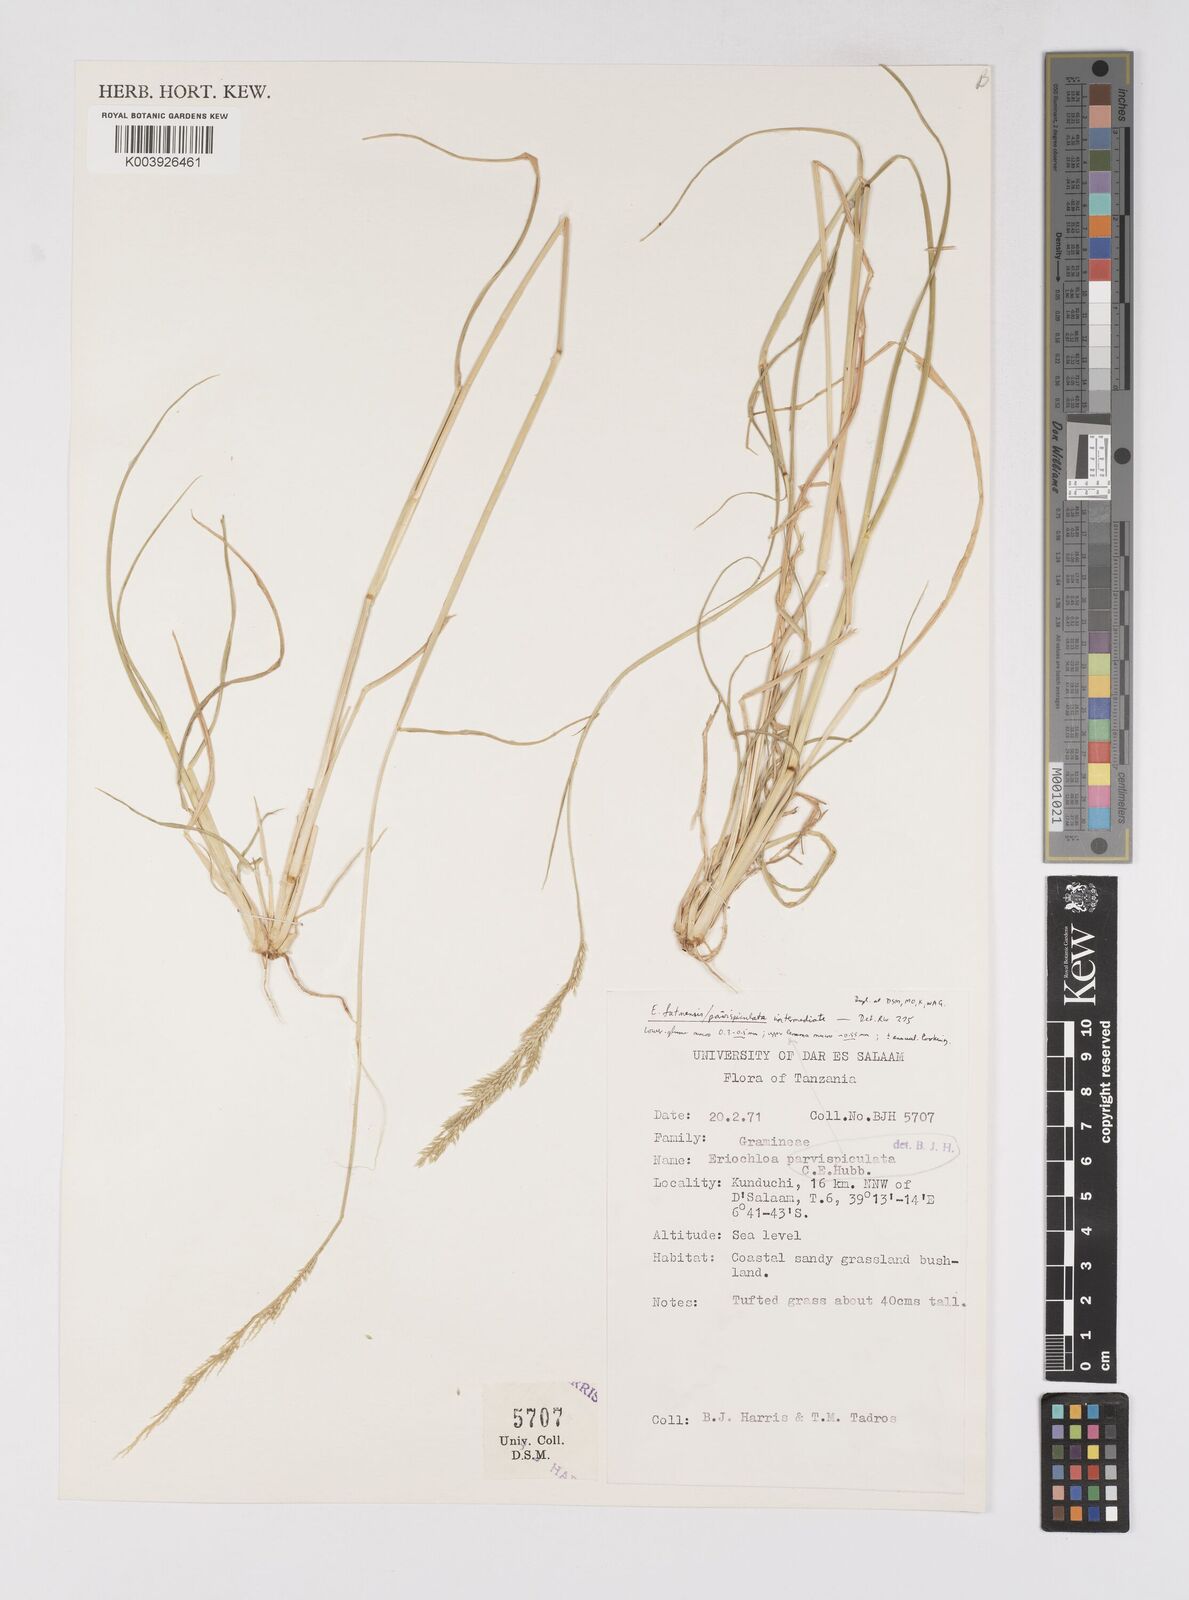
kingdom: Plantae
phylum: Tracheophyta
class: Liliopsida
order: Poales
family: Poaceae
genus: Eriochloa
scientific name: Eriochloa parvispiculata
